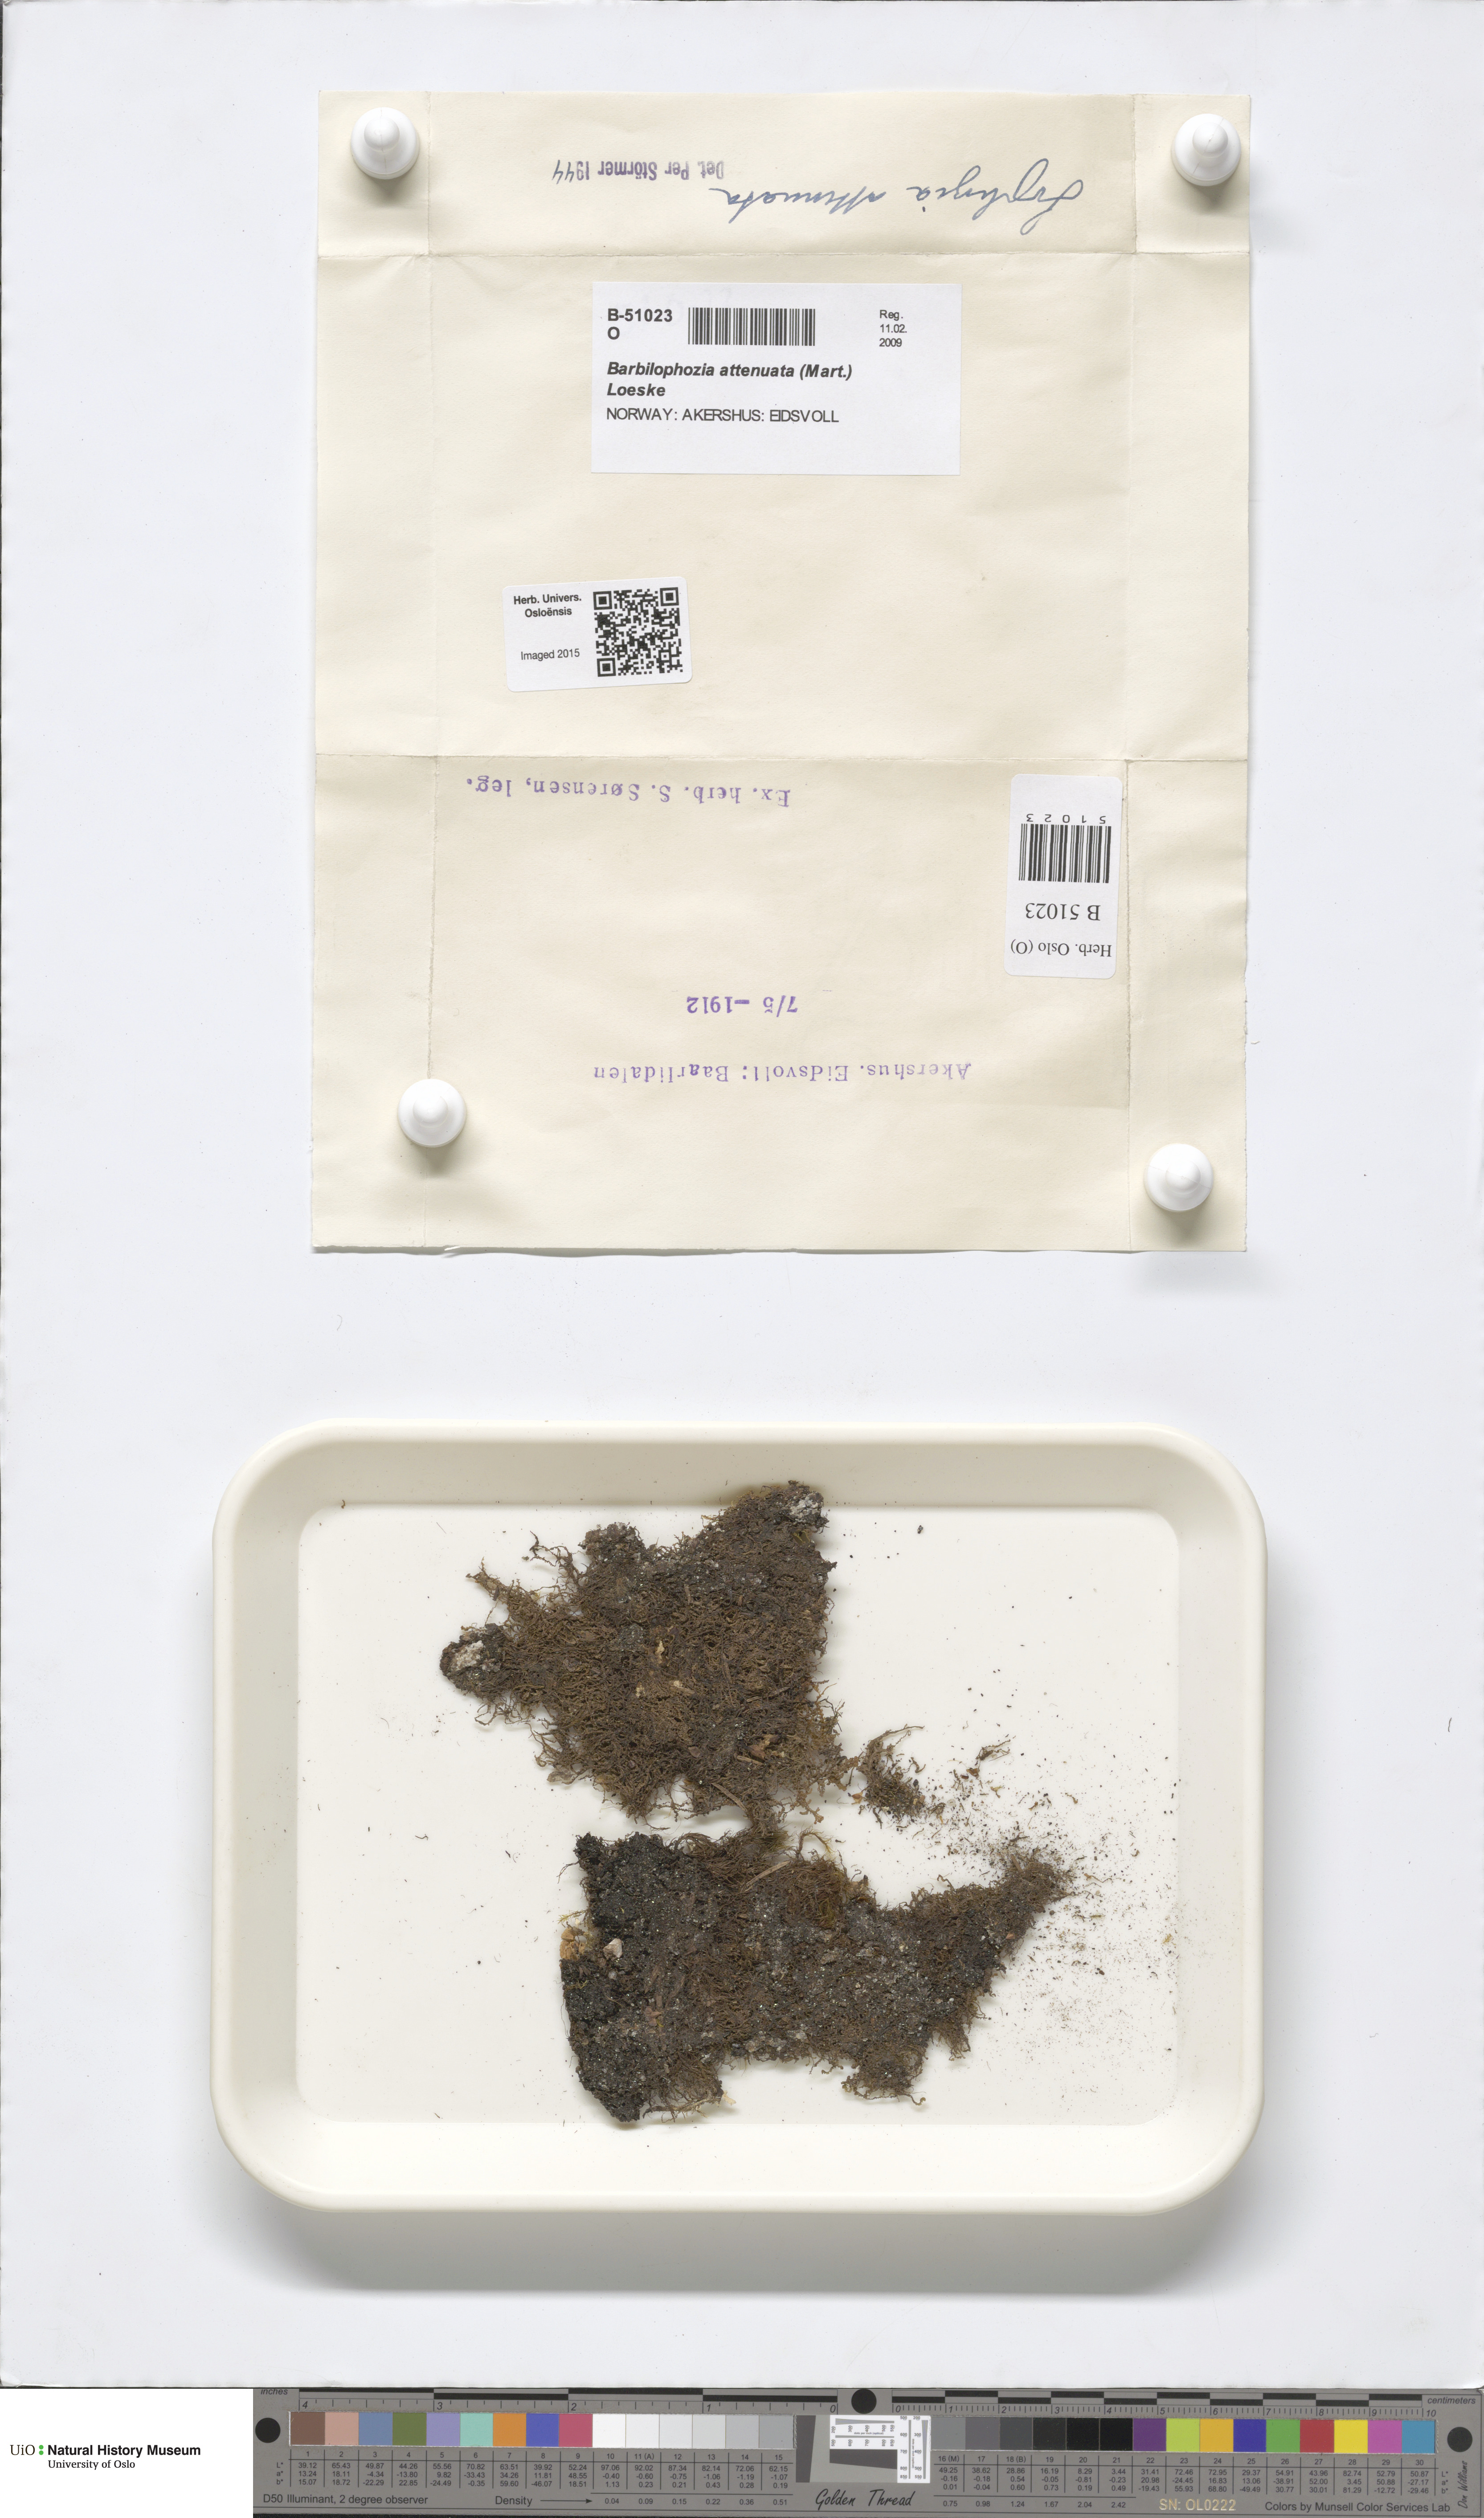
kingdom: Plantae
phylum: Marchantiophyta
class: Jungermanniopsida
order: Jungermanniales
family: Anastrophyllaceae
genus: Neoorthocaulis
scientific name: Neoorthocaulis attenuatus
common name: Trunk pawwort
